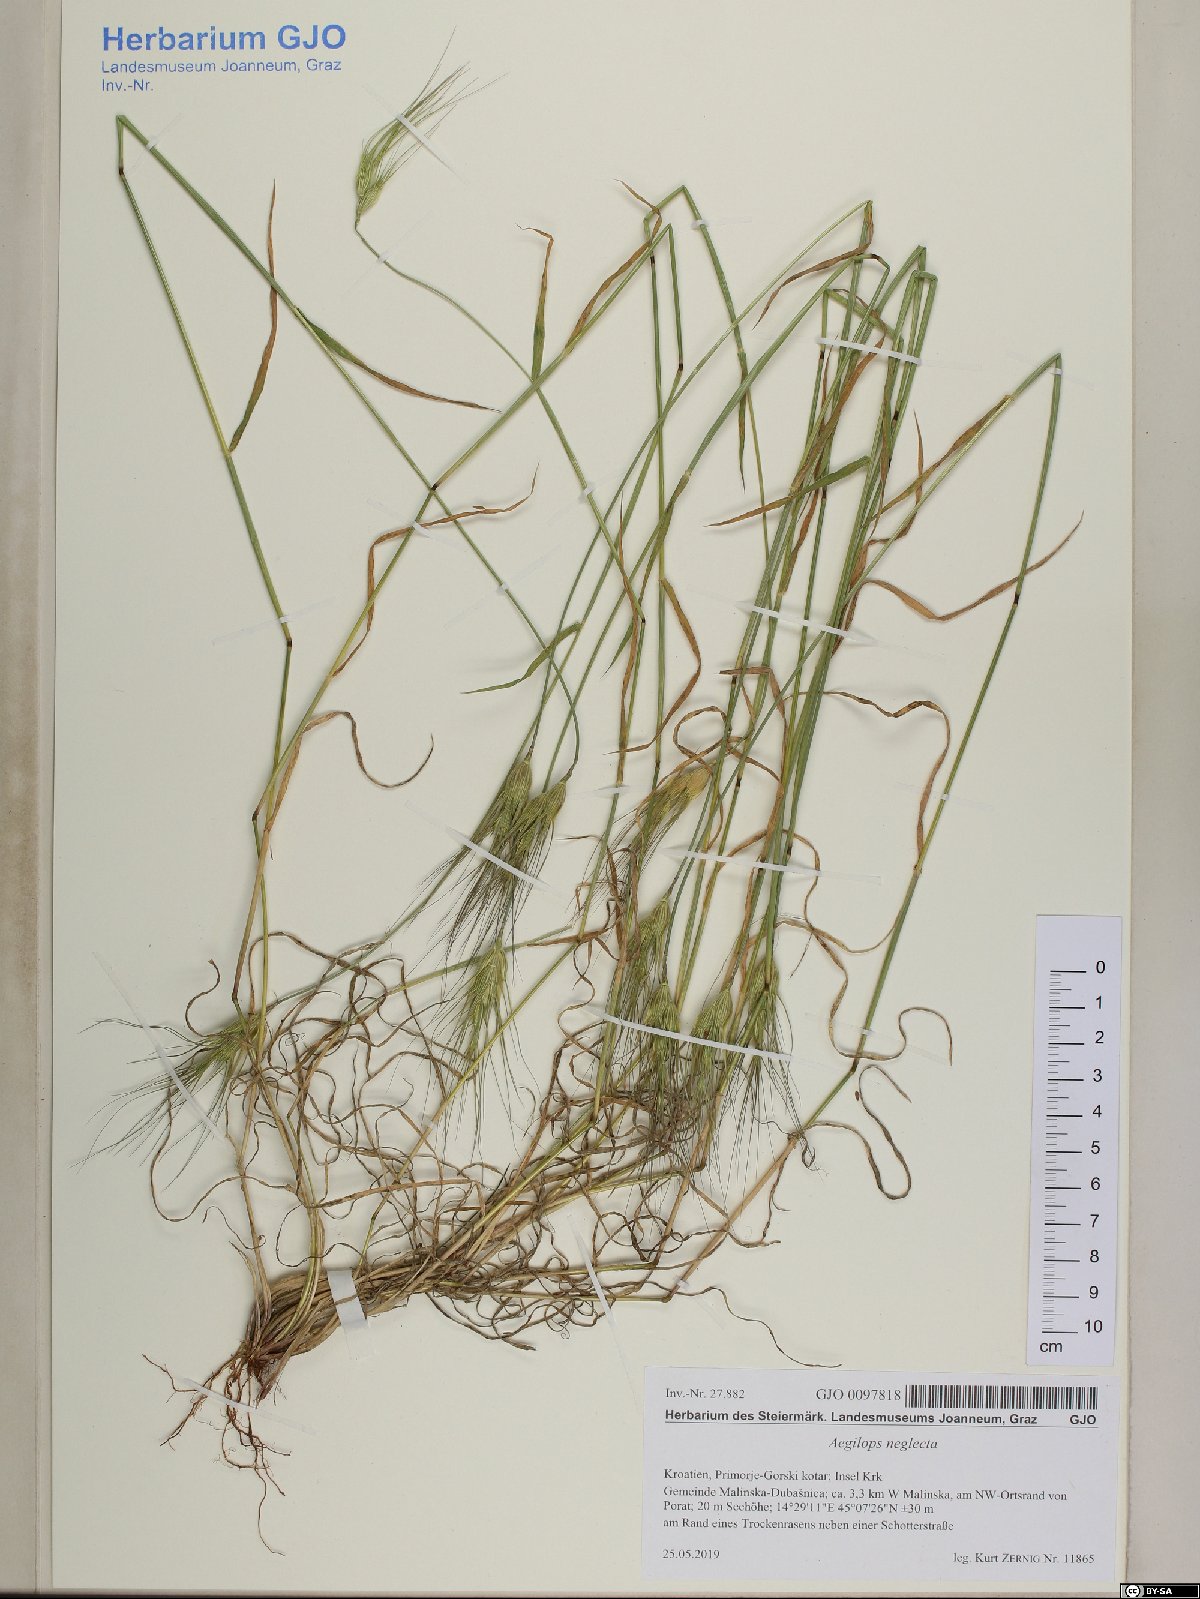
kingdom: Plantae
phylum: Tracheophyta
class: Liliopsida
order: Poales
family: Poaceae
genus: Aegilops
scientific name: Aegilops neglecta
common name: Three-awn goat grass
